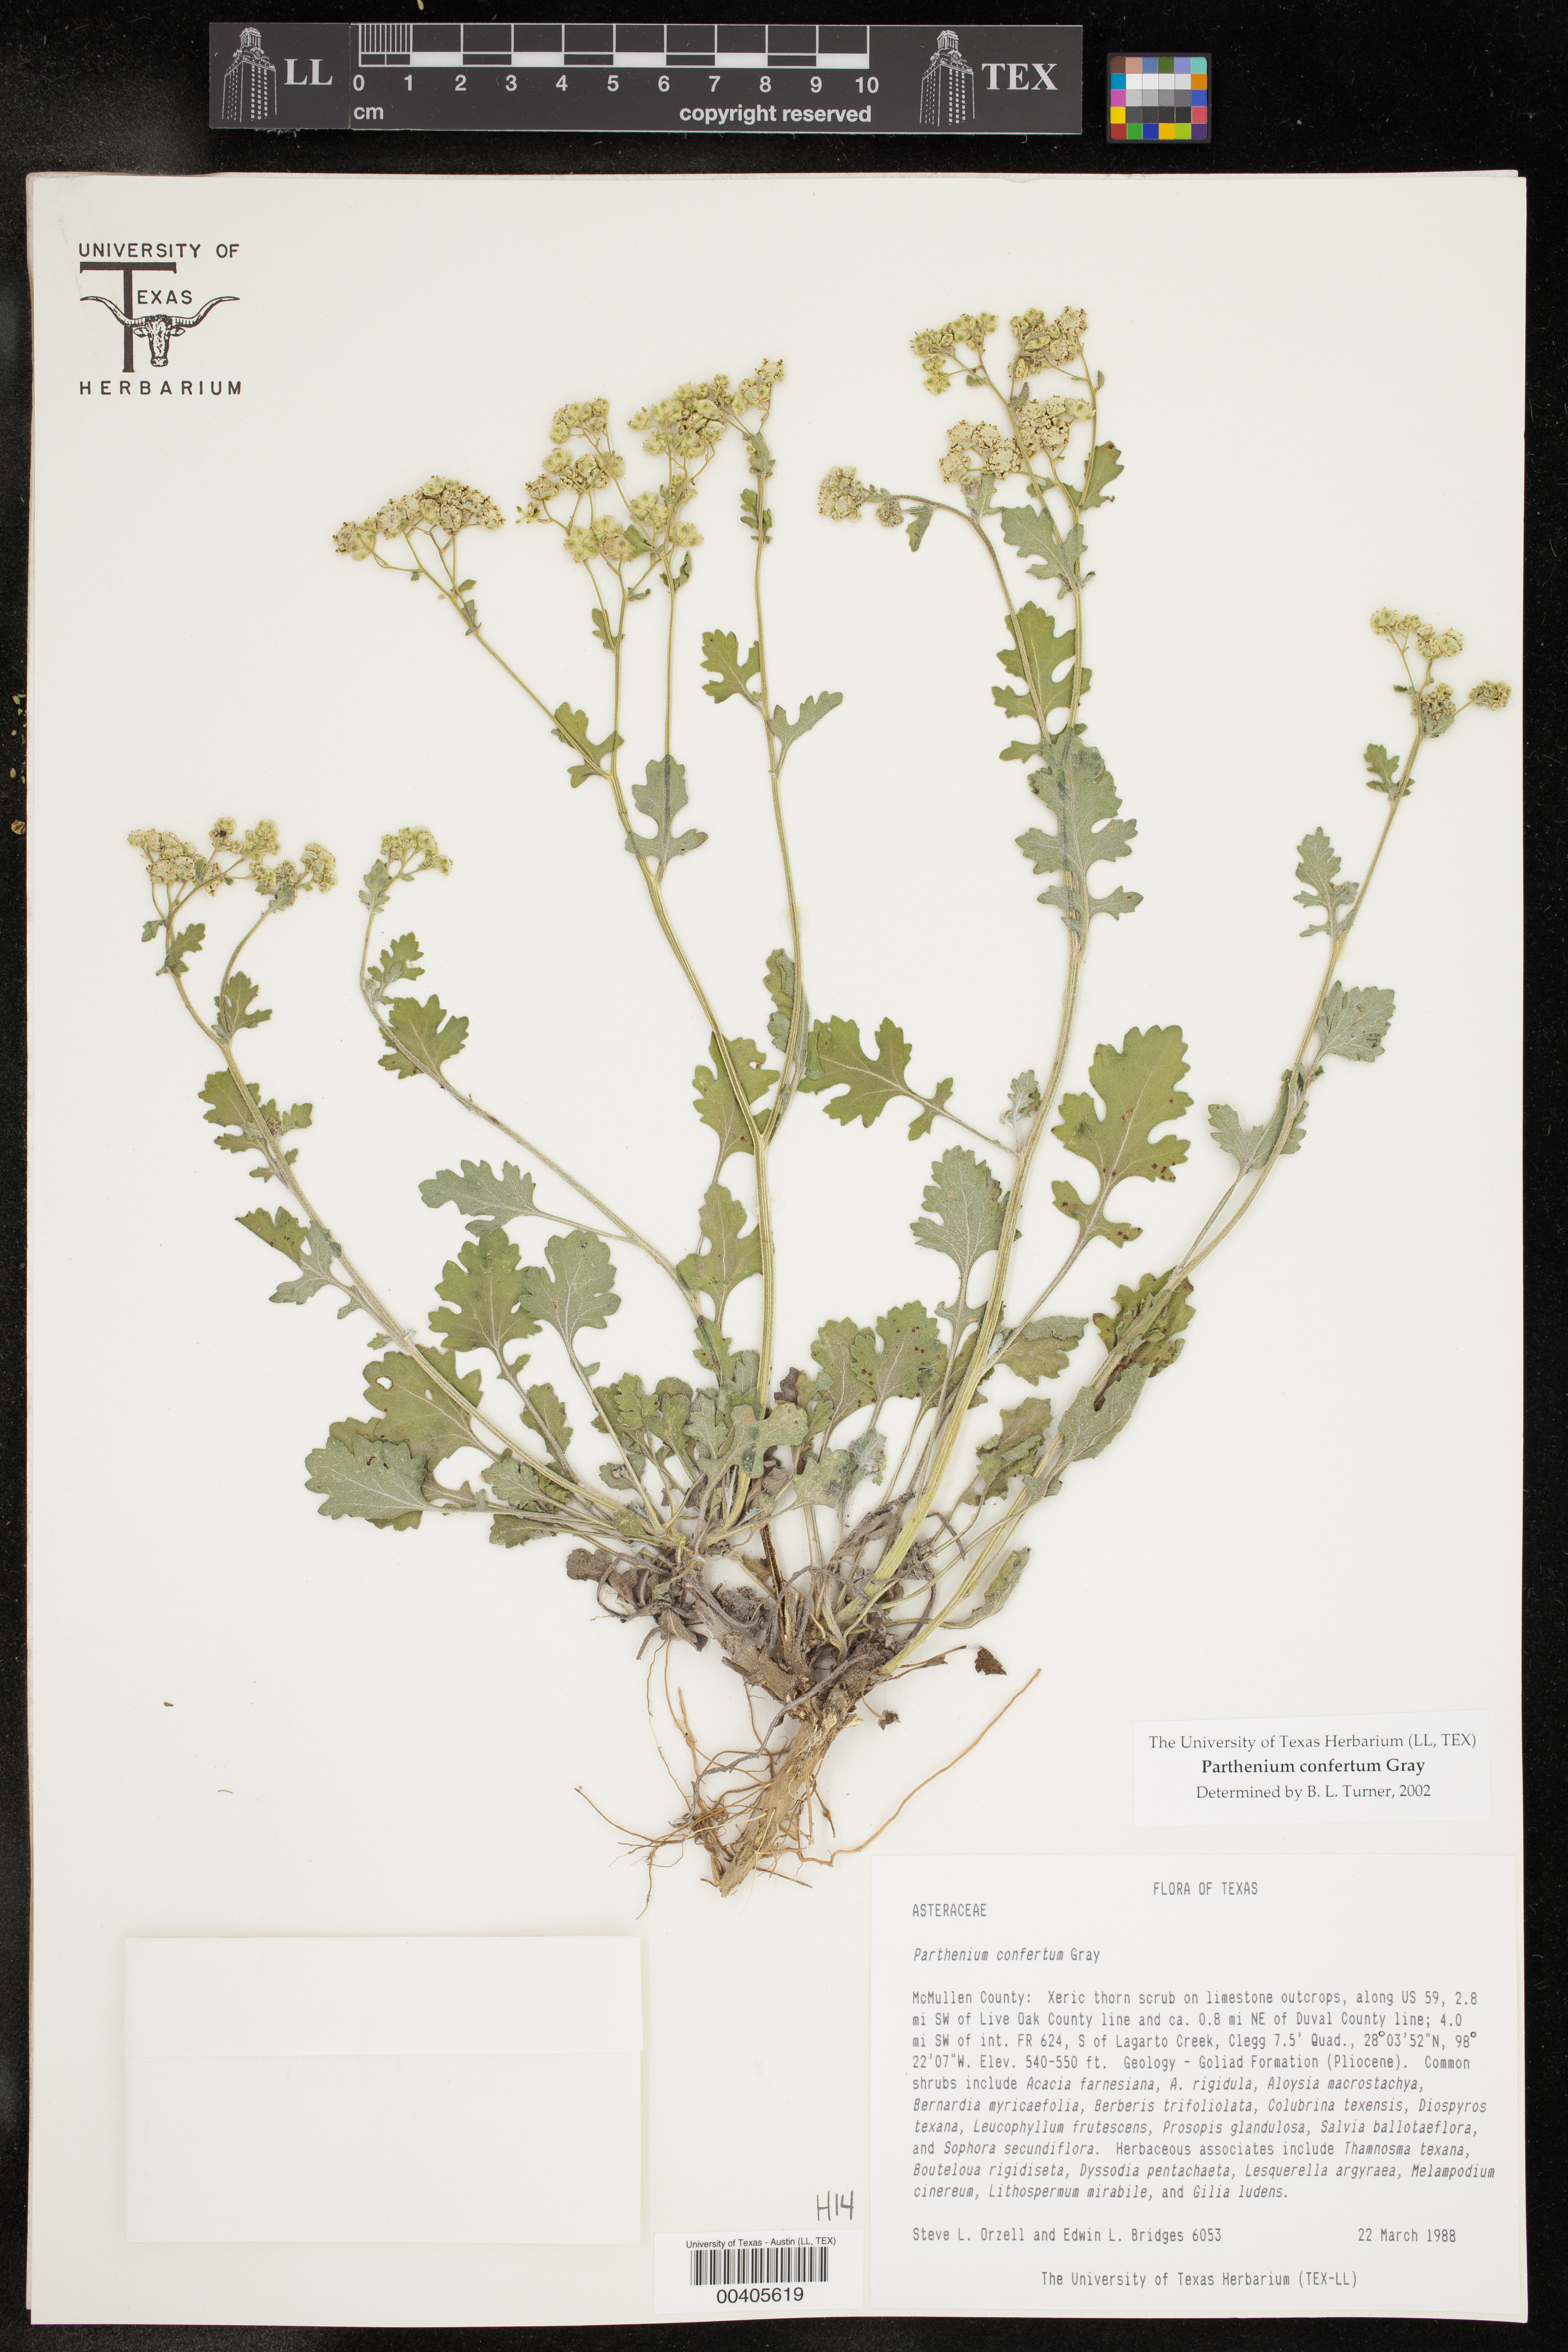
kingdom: Plantae
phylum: Tracheophyta
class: Magnoliopsida
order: Asterales
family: Asteraceae
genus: Parthenium
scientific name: Parthenium confertum
